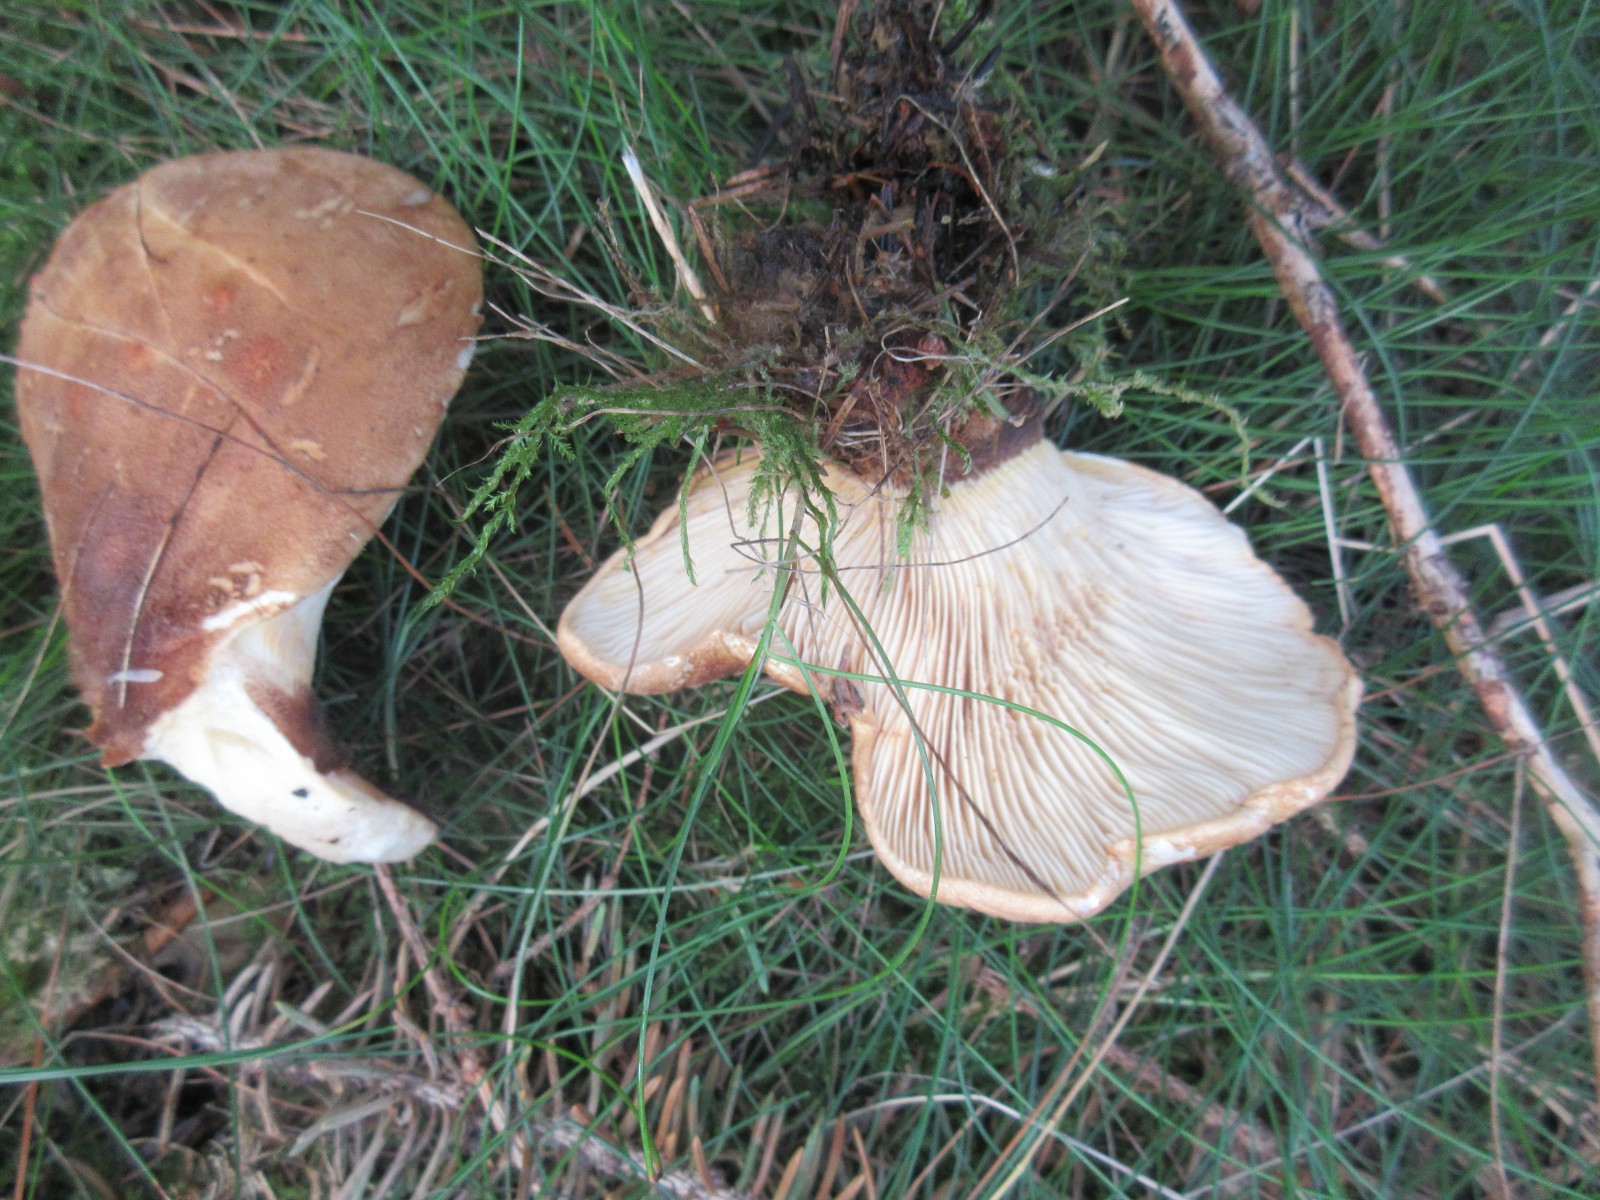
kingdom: Fungi
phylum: Basidiomycota
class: Agaricomycetes
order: Boletales
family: Tapinellaceae
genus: Tapinella
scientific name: Tapinella atrotomentosa
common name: sortfiltet viftesvamp
